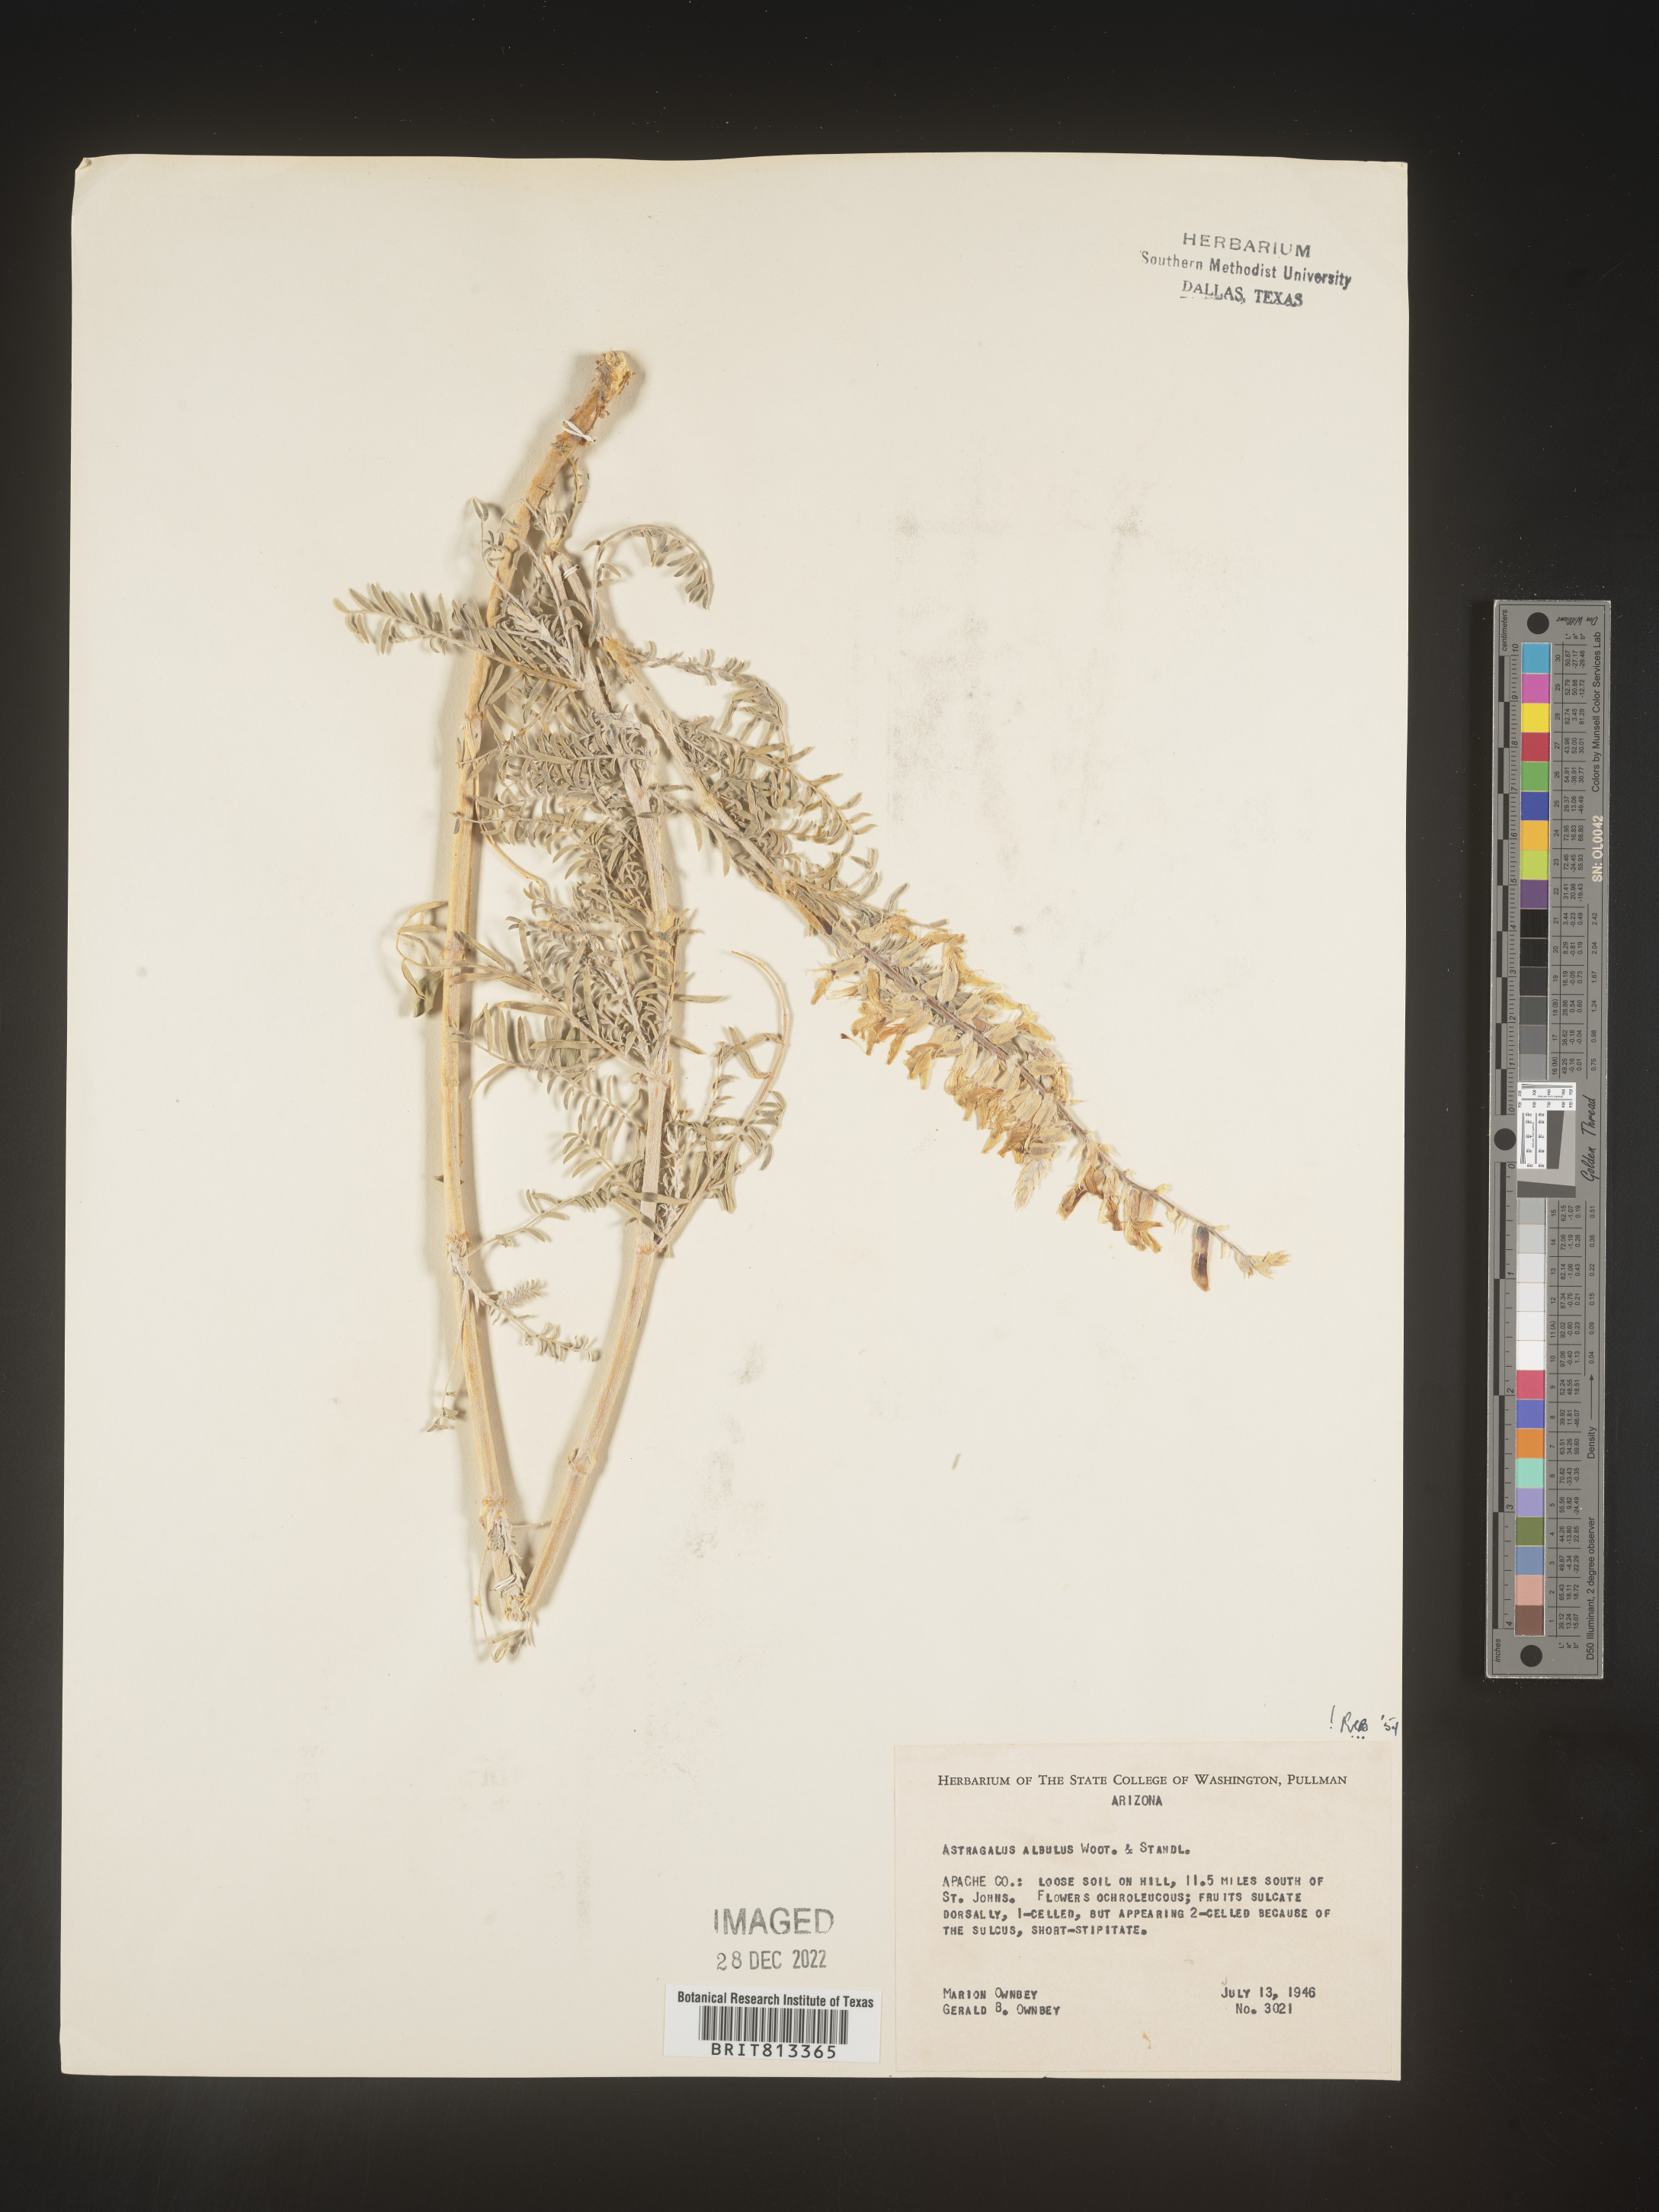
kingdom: Plantae
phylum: Tracheophyta
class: Magnoliopsida
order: Fabales
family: Fabaceae
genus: Astragalus
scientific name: Astragalus
